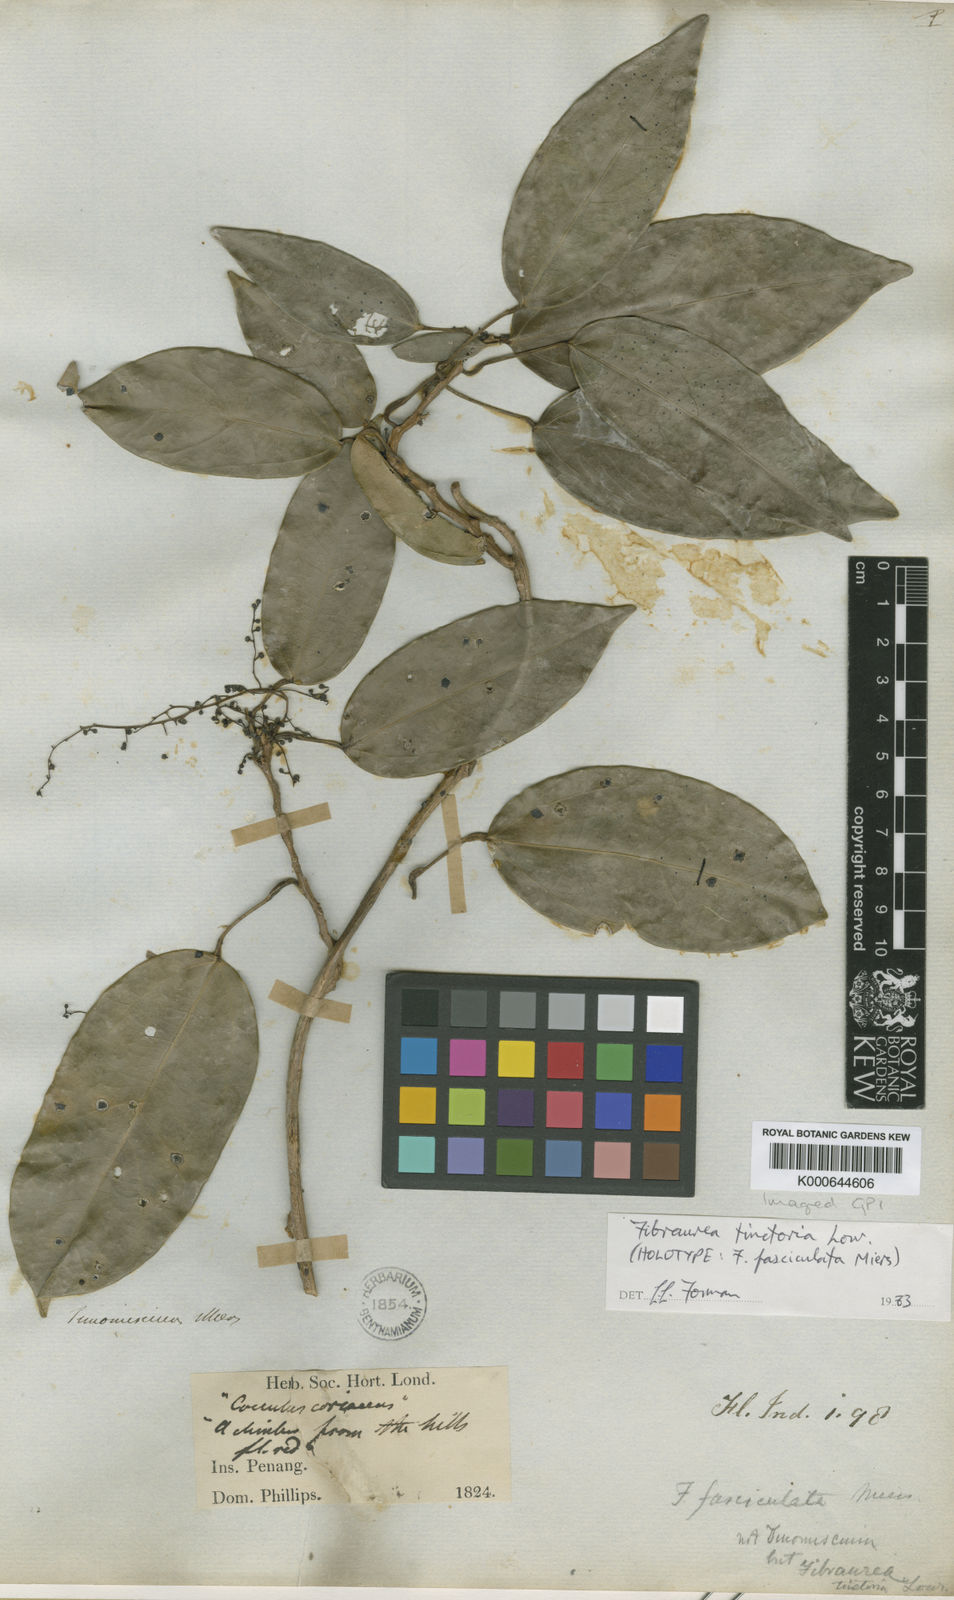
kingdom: Plantae
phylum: Tracheophyta
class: Magnoliopsida
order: Ranunculales
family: Menispermaceae
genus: Fibraurea
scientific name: Fibraurea tinctoria
